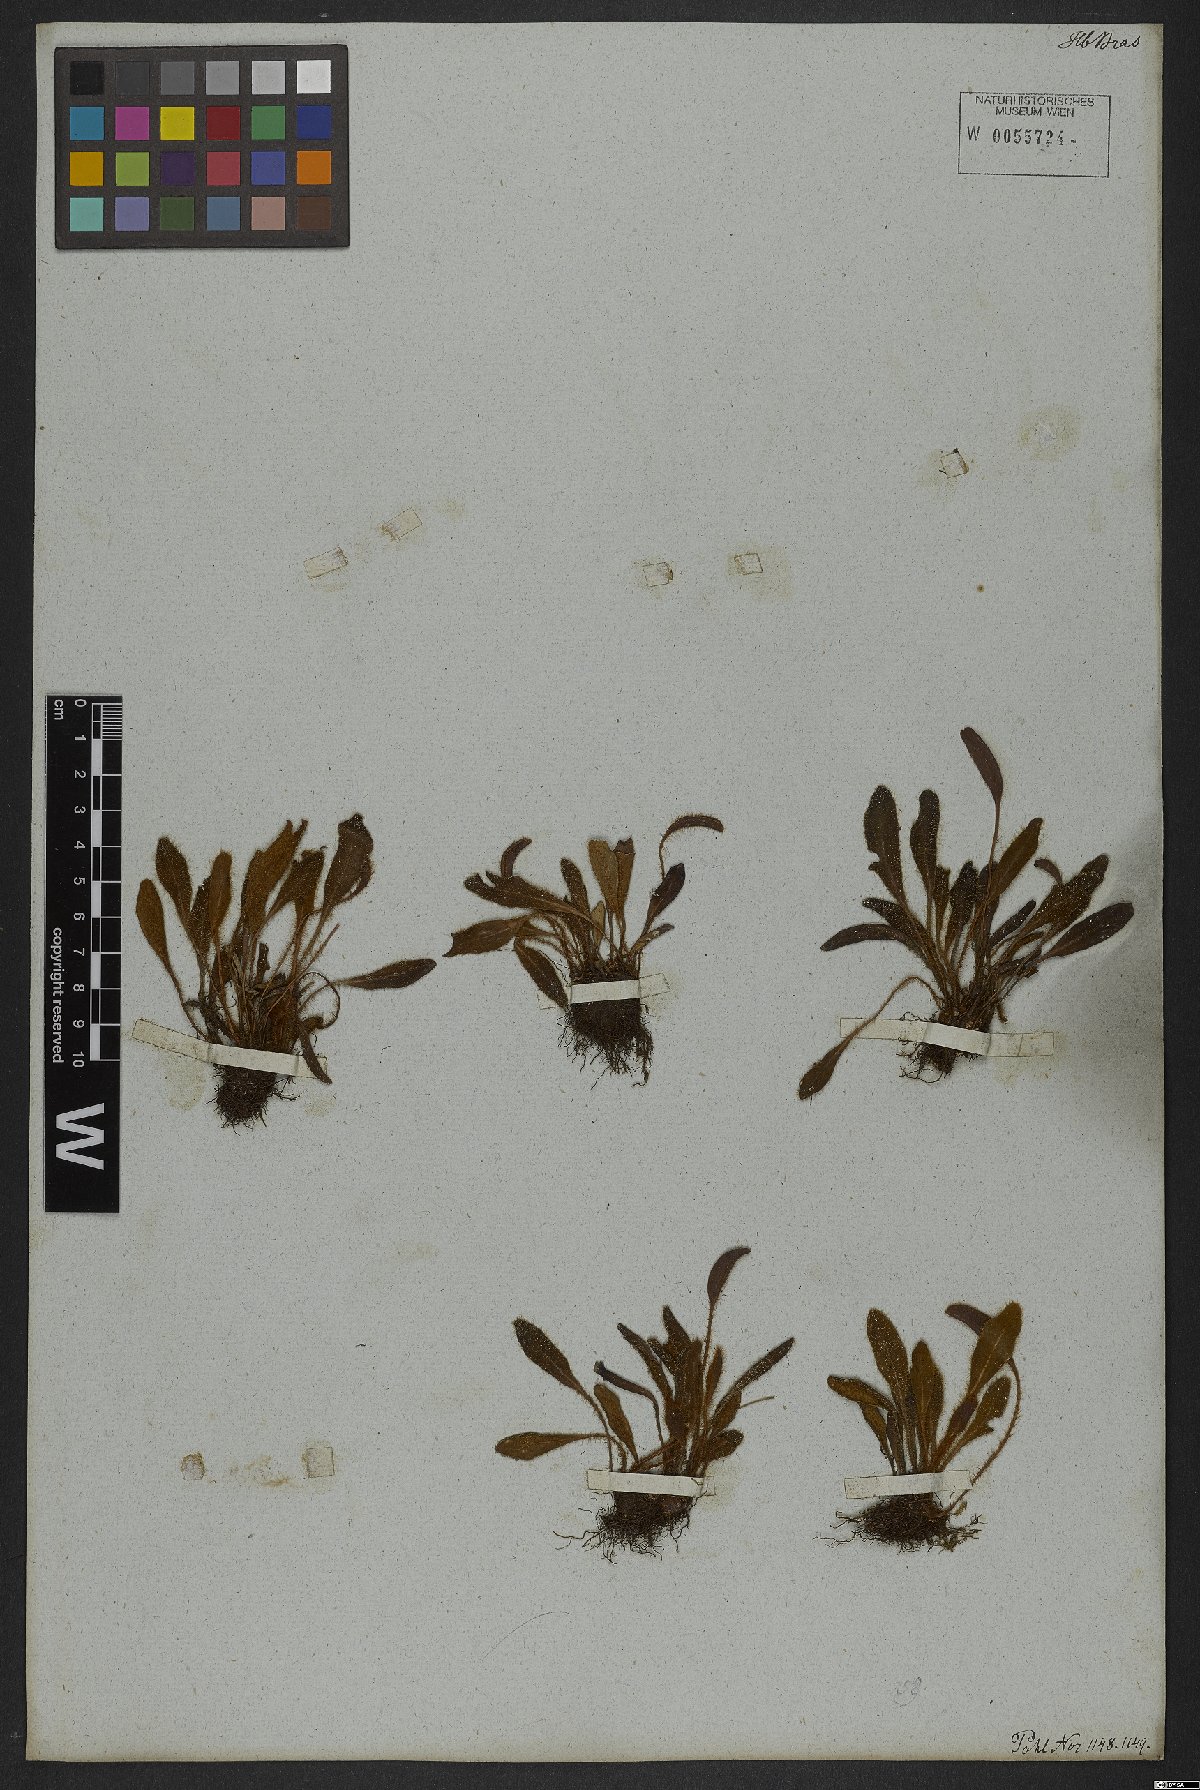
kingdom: Plantae
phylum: Tracheophyta
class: Polypodiopsida
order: Polypodiales
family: Dryopteridaceae
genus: Elaphoglossum
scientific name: Elaphoglossum spatulatum
